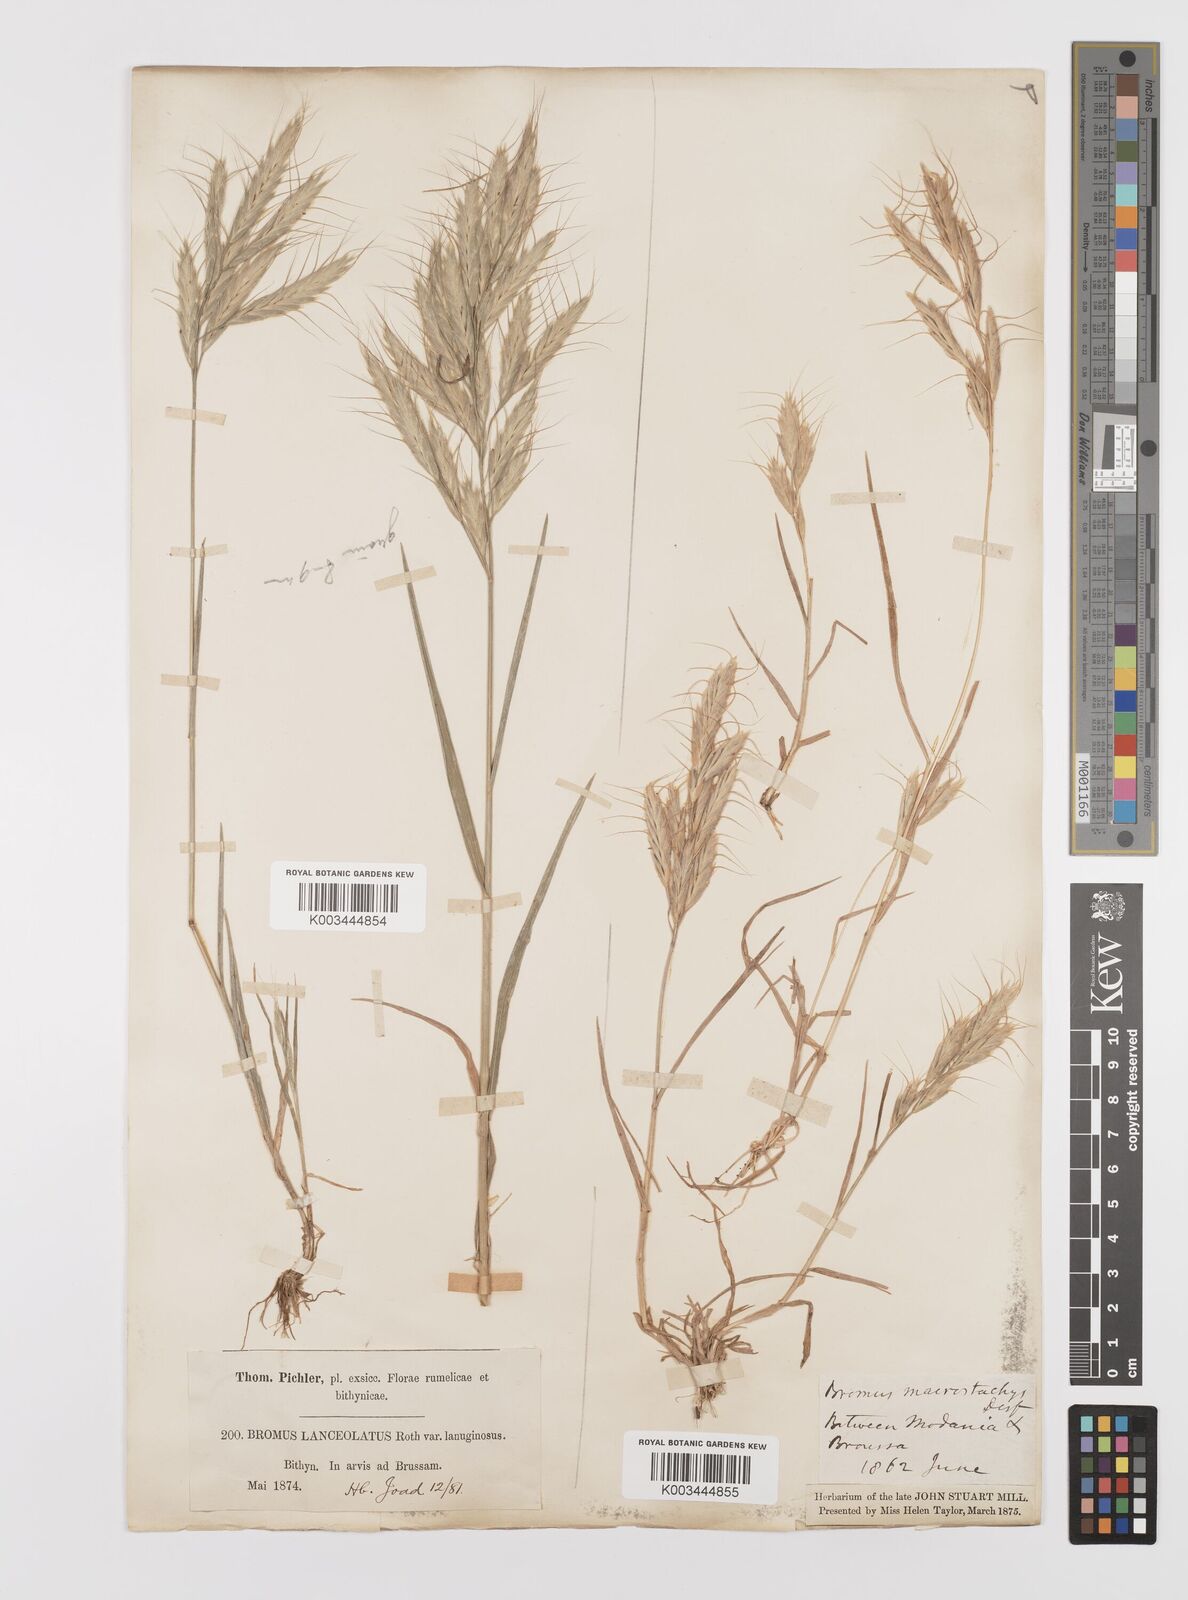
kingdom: Plantae
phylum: Tracheophyta
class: Liliopsida
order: Poales
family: Poaceae
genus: Bromus
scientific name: Bromus lanceolatus
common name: Mediterranean brome
